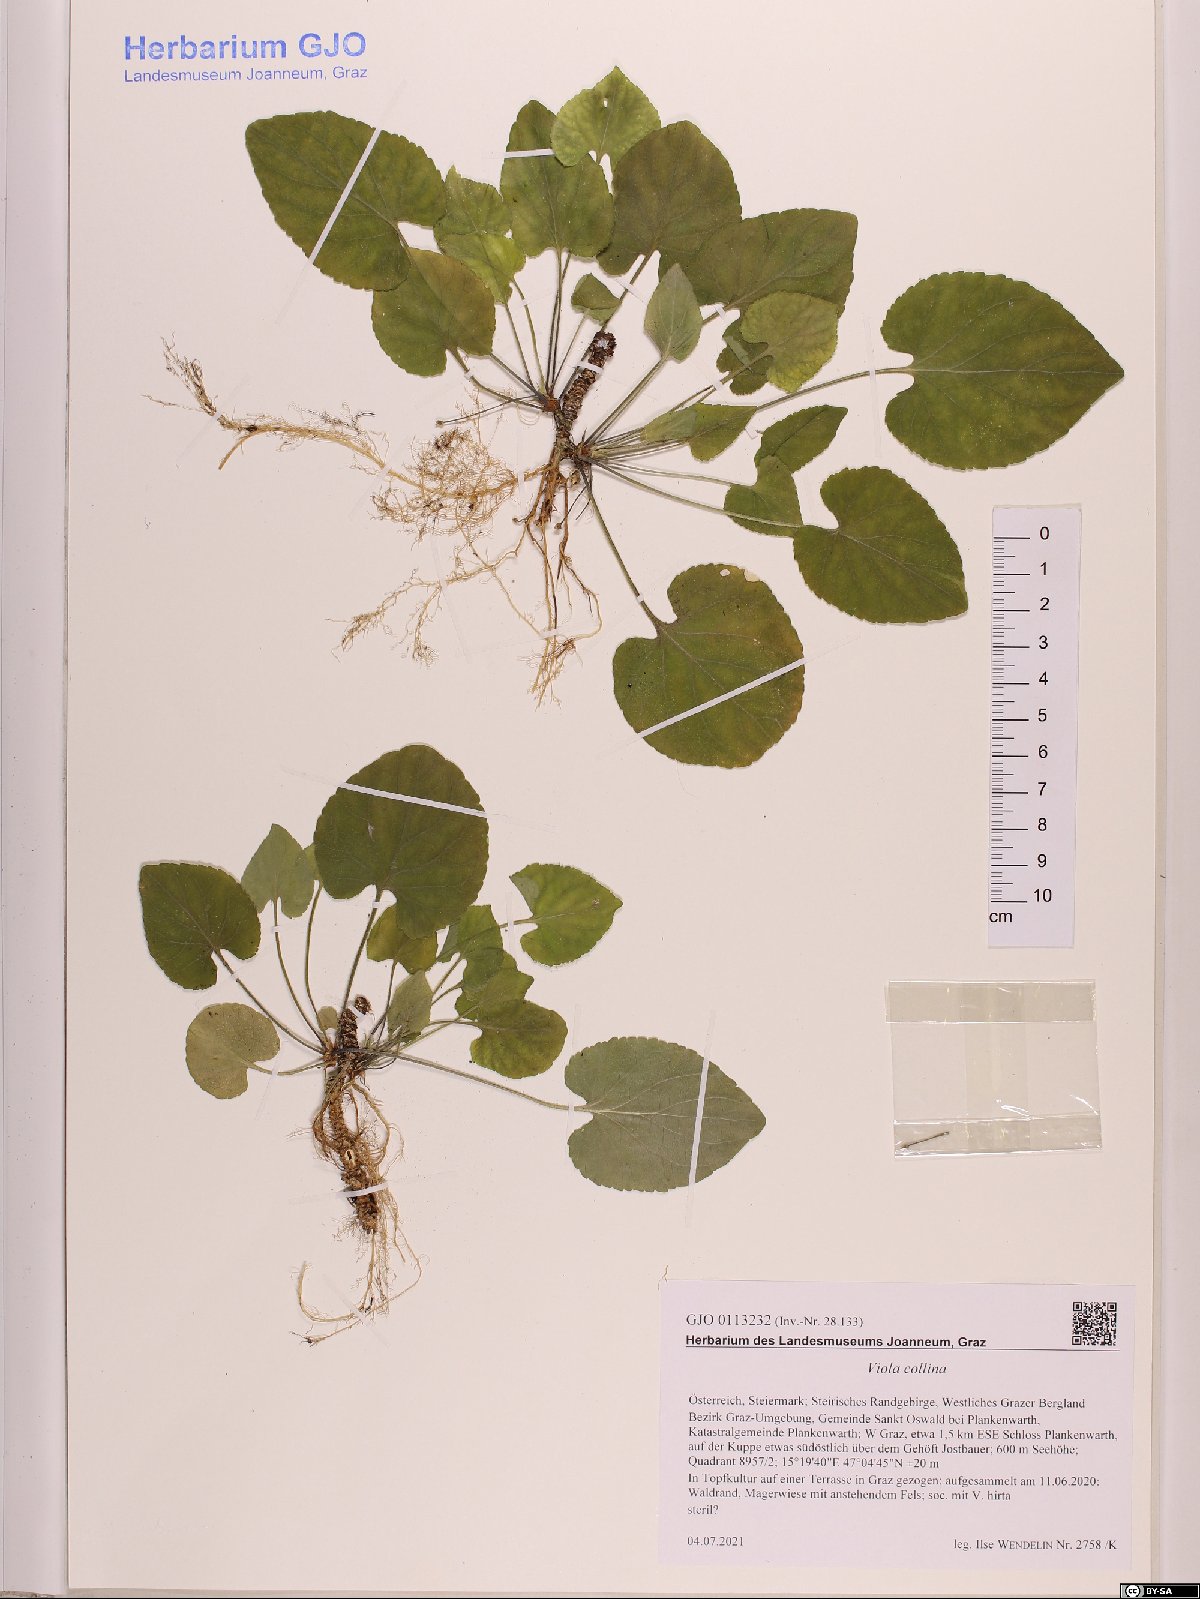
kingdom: Plantae
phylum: Tracheophyta
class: Magnoliopsida
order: Malpighiales
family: Violaceae
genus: Viola
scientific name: Viola collina
